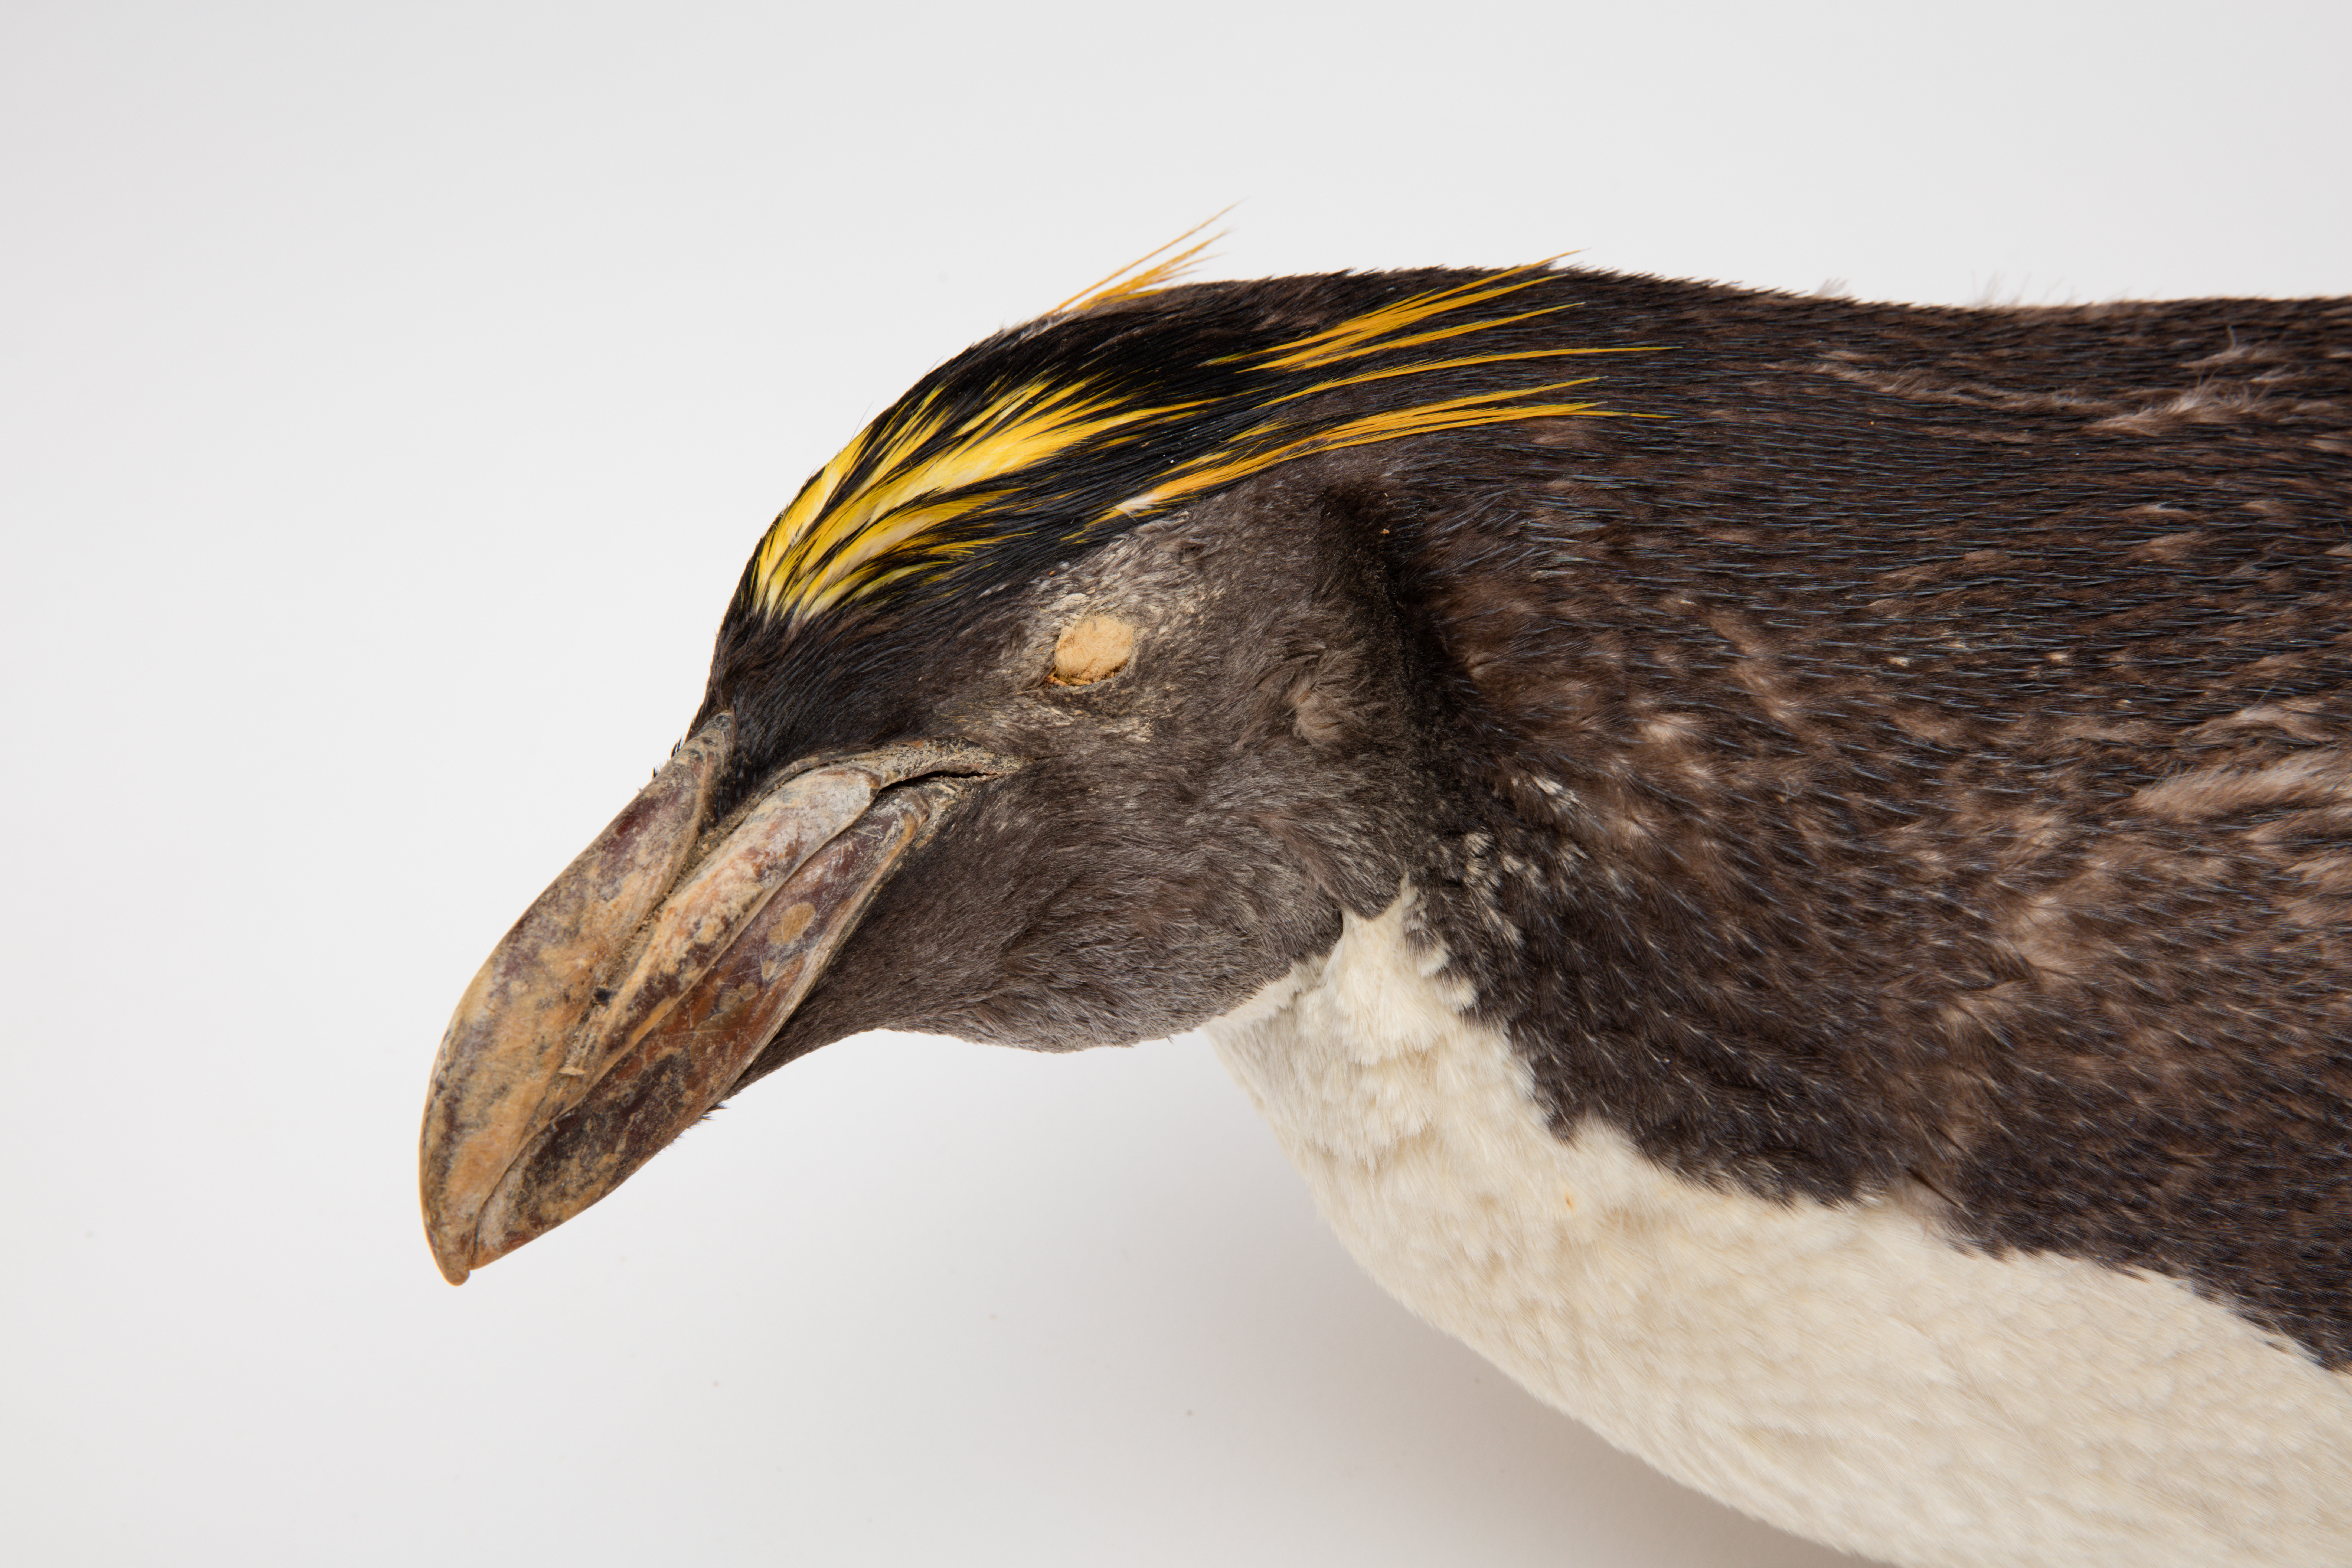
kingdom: Animalia
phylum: Chordata
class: Aves
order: Sphenisciformes
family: Spheniscidae
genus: Eudyptes
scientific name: Eudyptes chrysolophus
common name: Macaroni penguin
